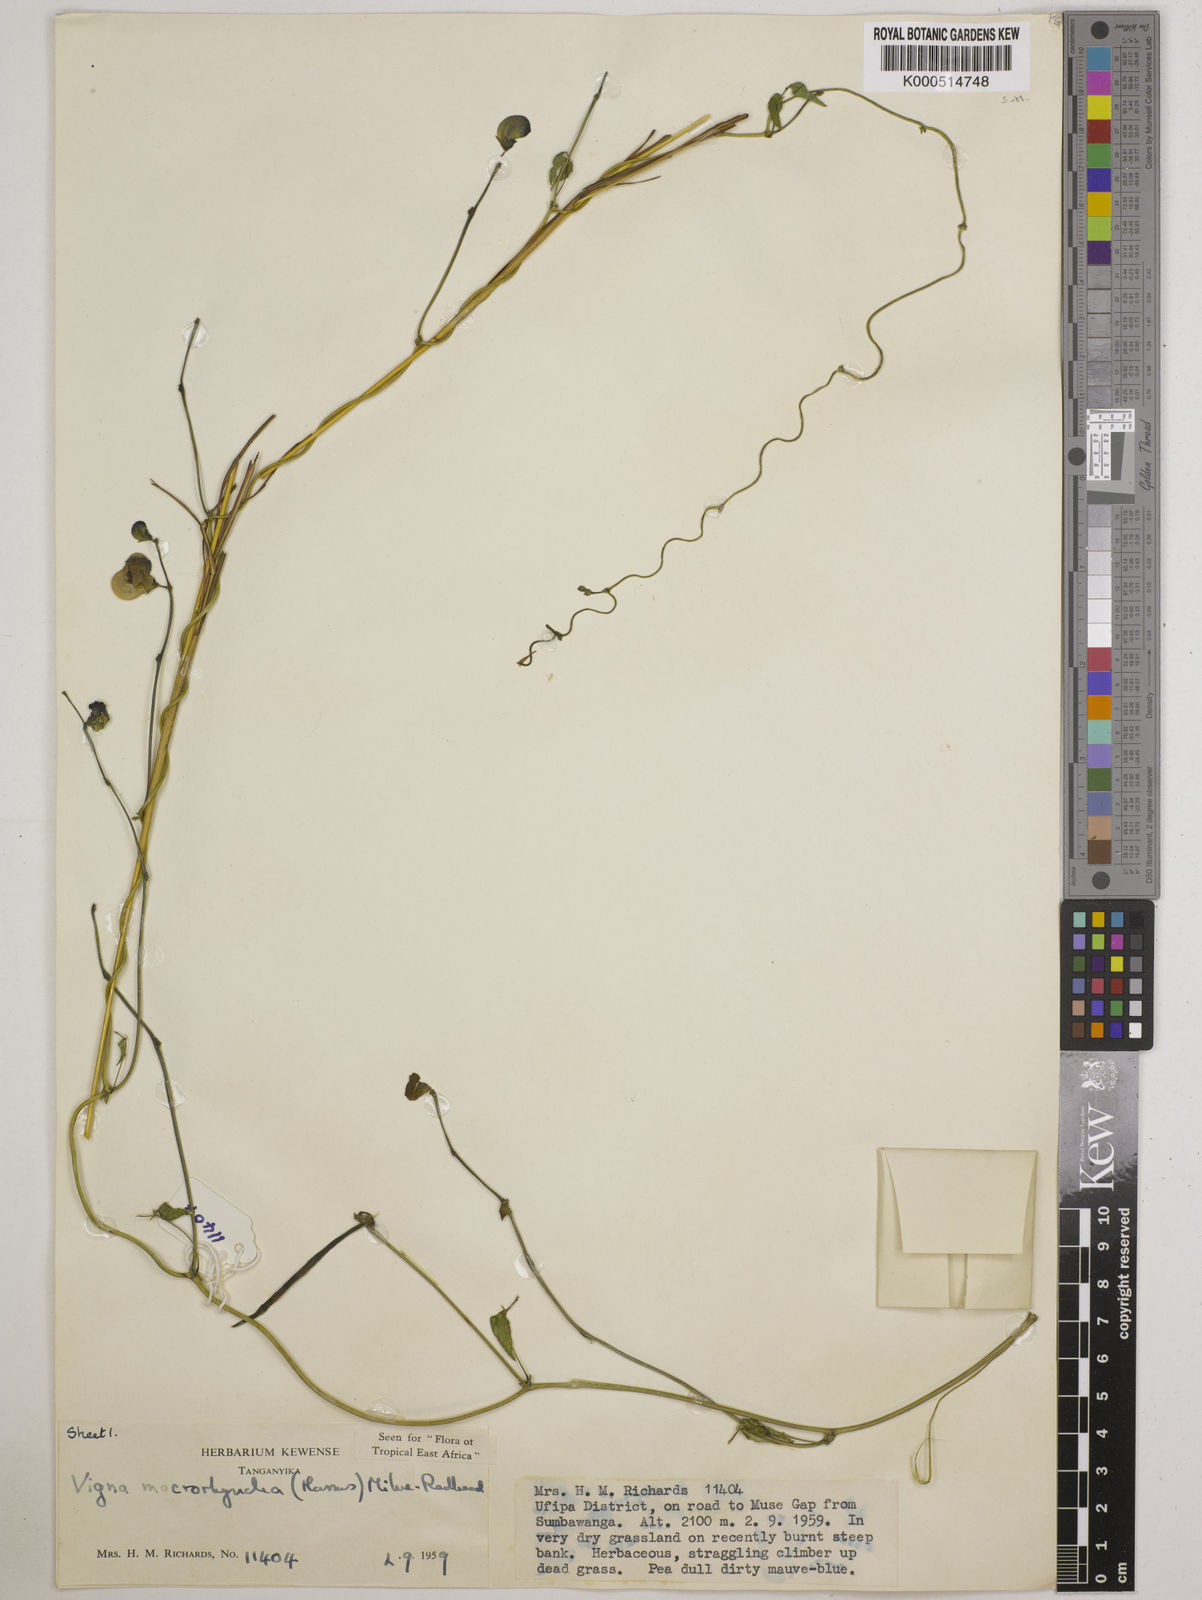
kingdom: Plantae
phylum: Tracheophyta
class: Magnoliopsida
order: Fabales
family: Fabaceae
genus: Wajira
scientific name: Wajira grahamiana
